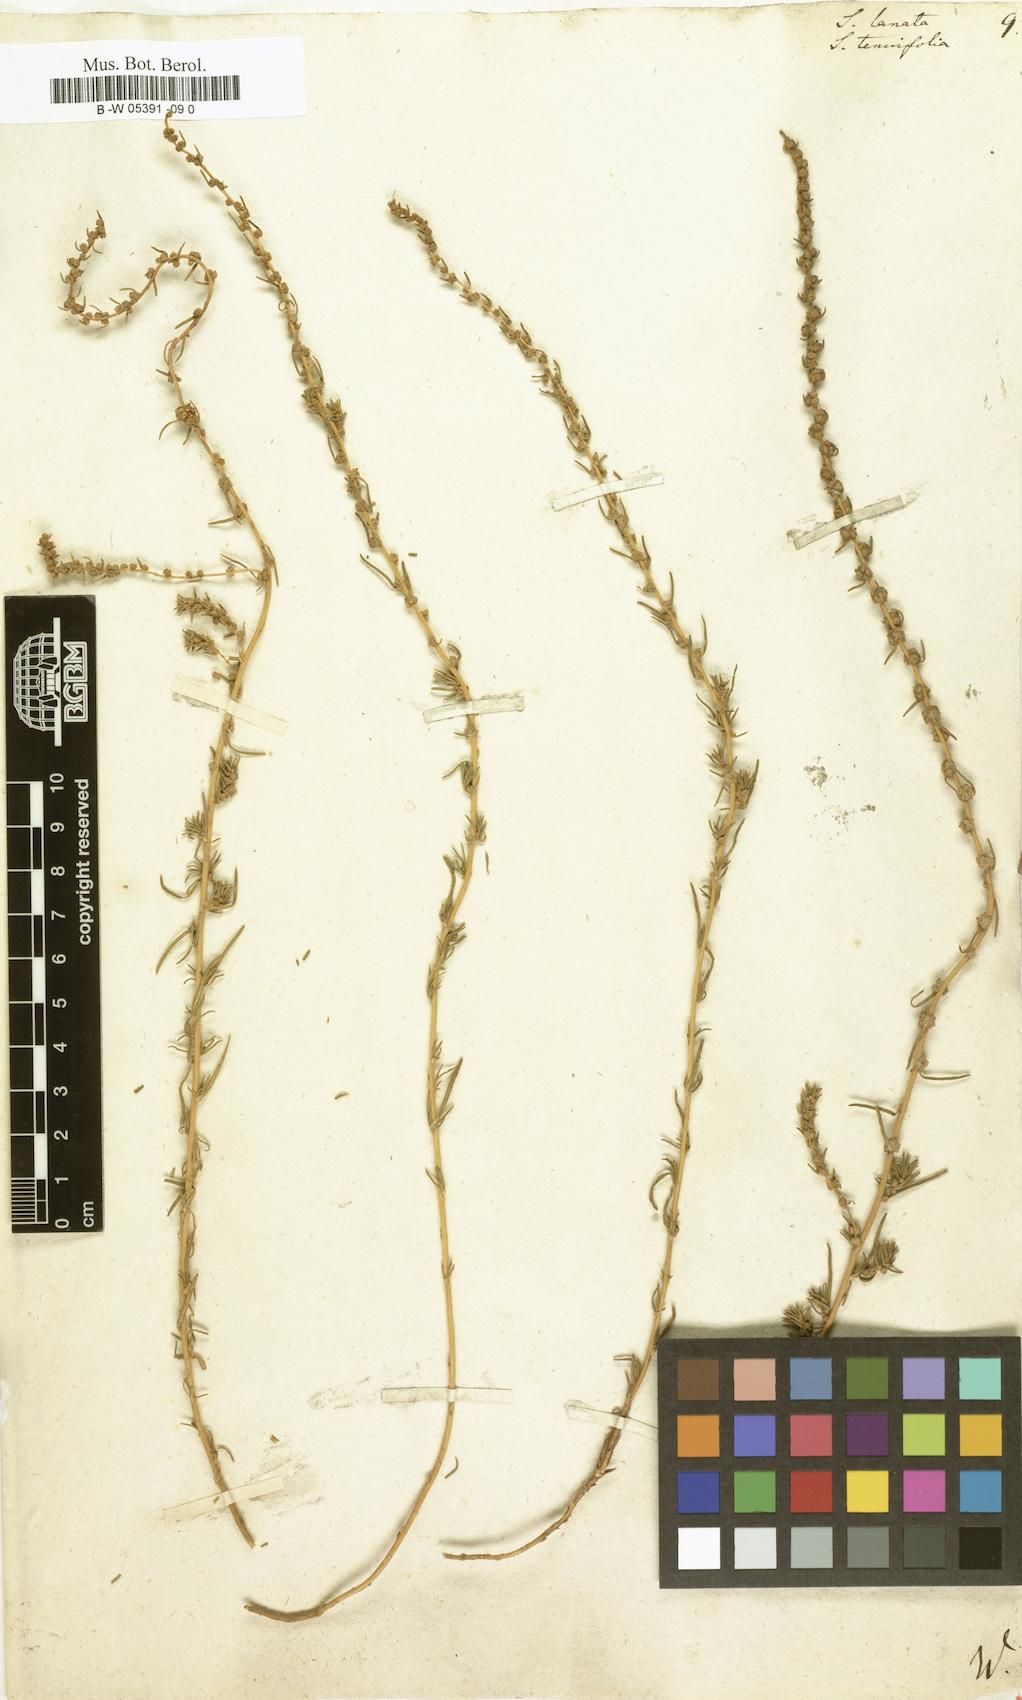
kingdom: Plantae
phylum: Tracheophyta
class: Magnoliopsida
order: Caryophyllales
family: Amaranthaceae
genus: Climacoptera
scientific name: Climacoptera lanata
